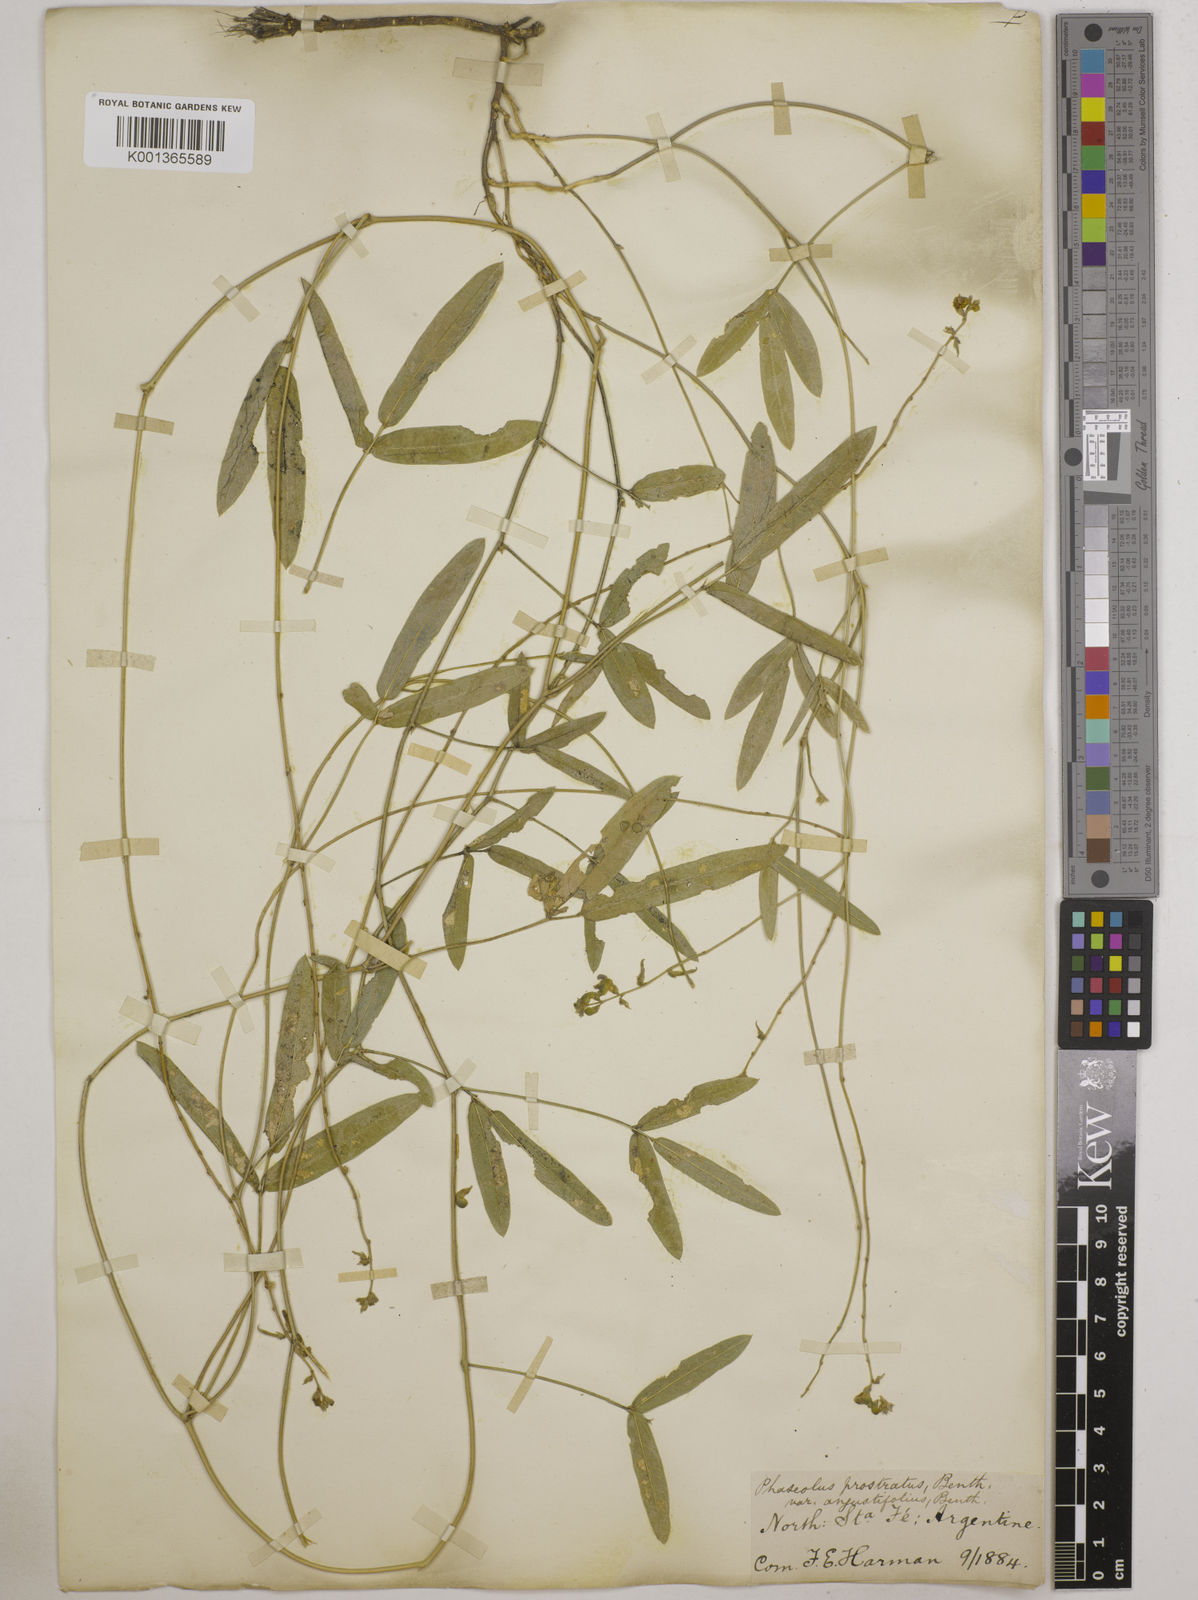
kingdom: Plantae
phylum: Tracheophyta
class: Magnoliopsida
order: Fabales
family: Fabaceae
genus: Macroptilium
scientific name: Macroptilium prostratum
